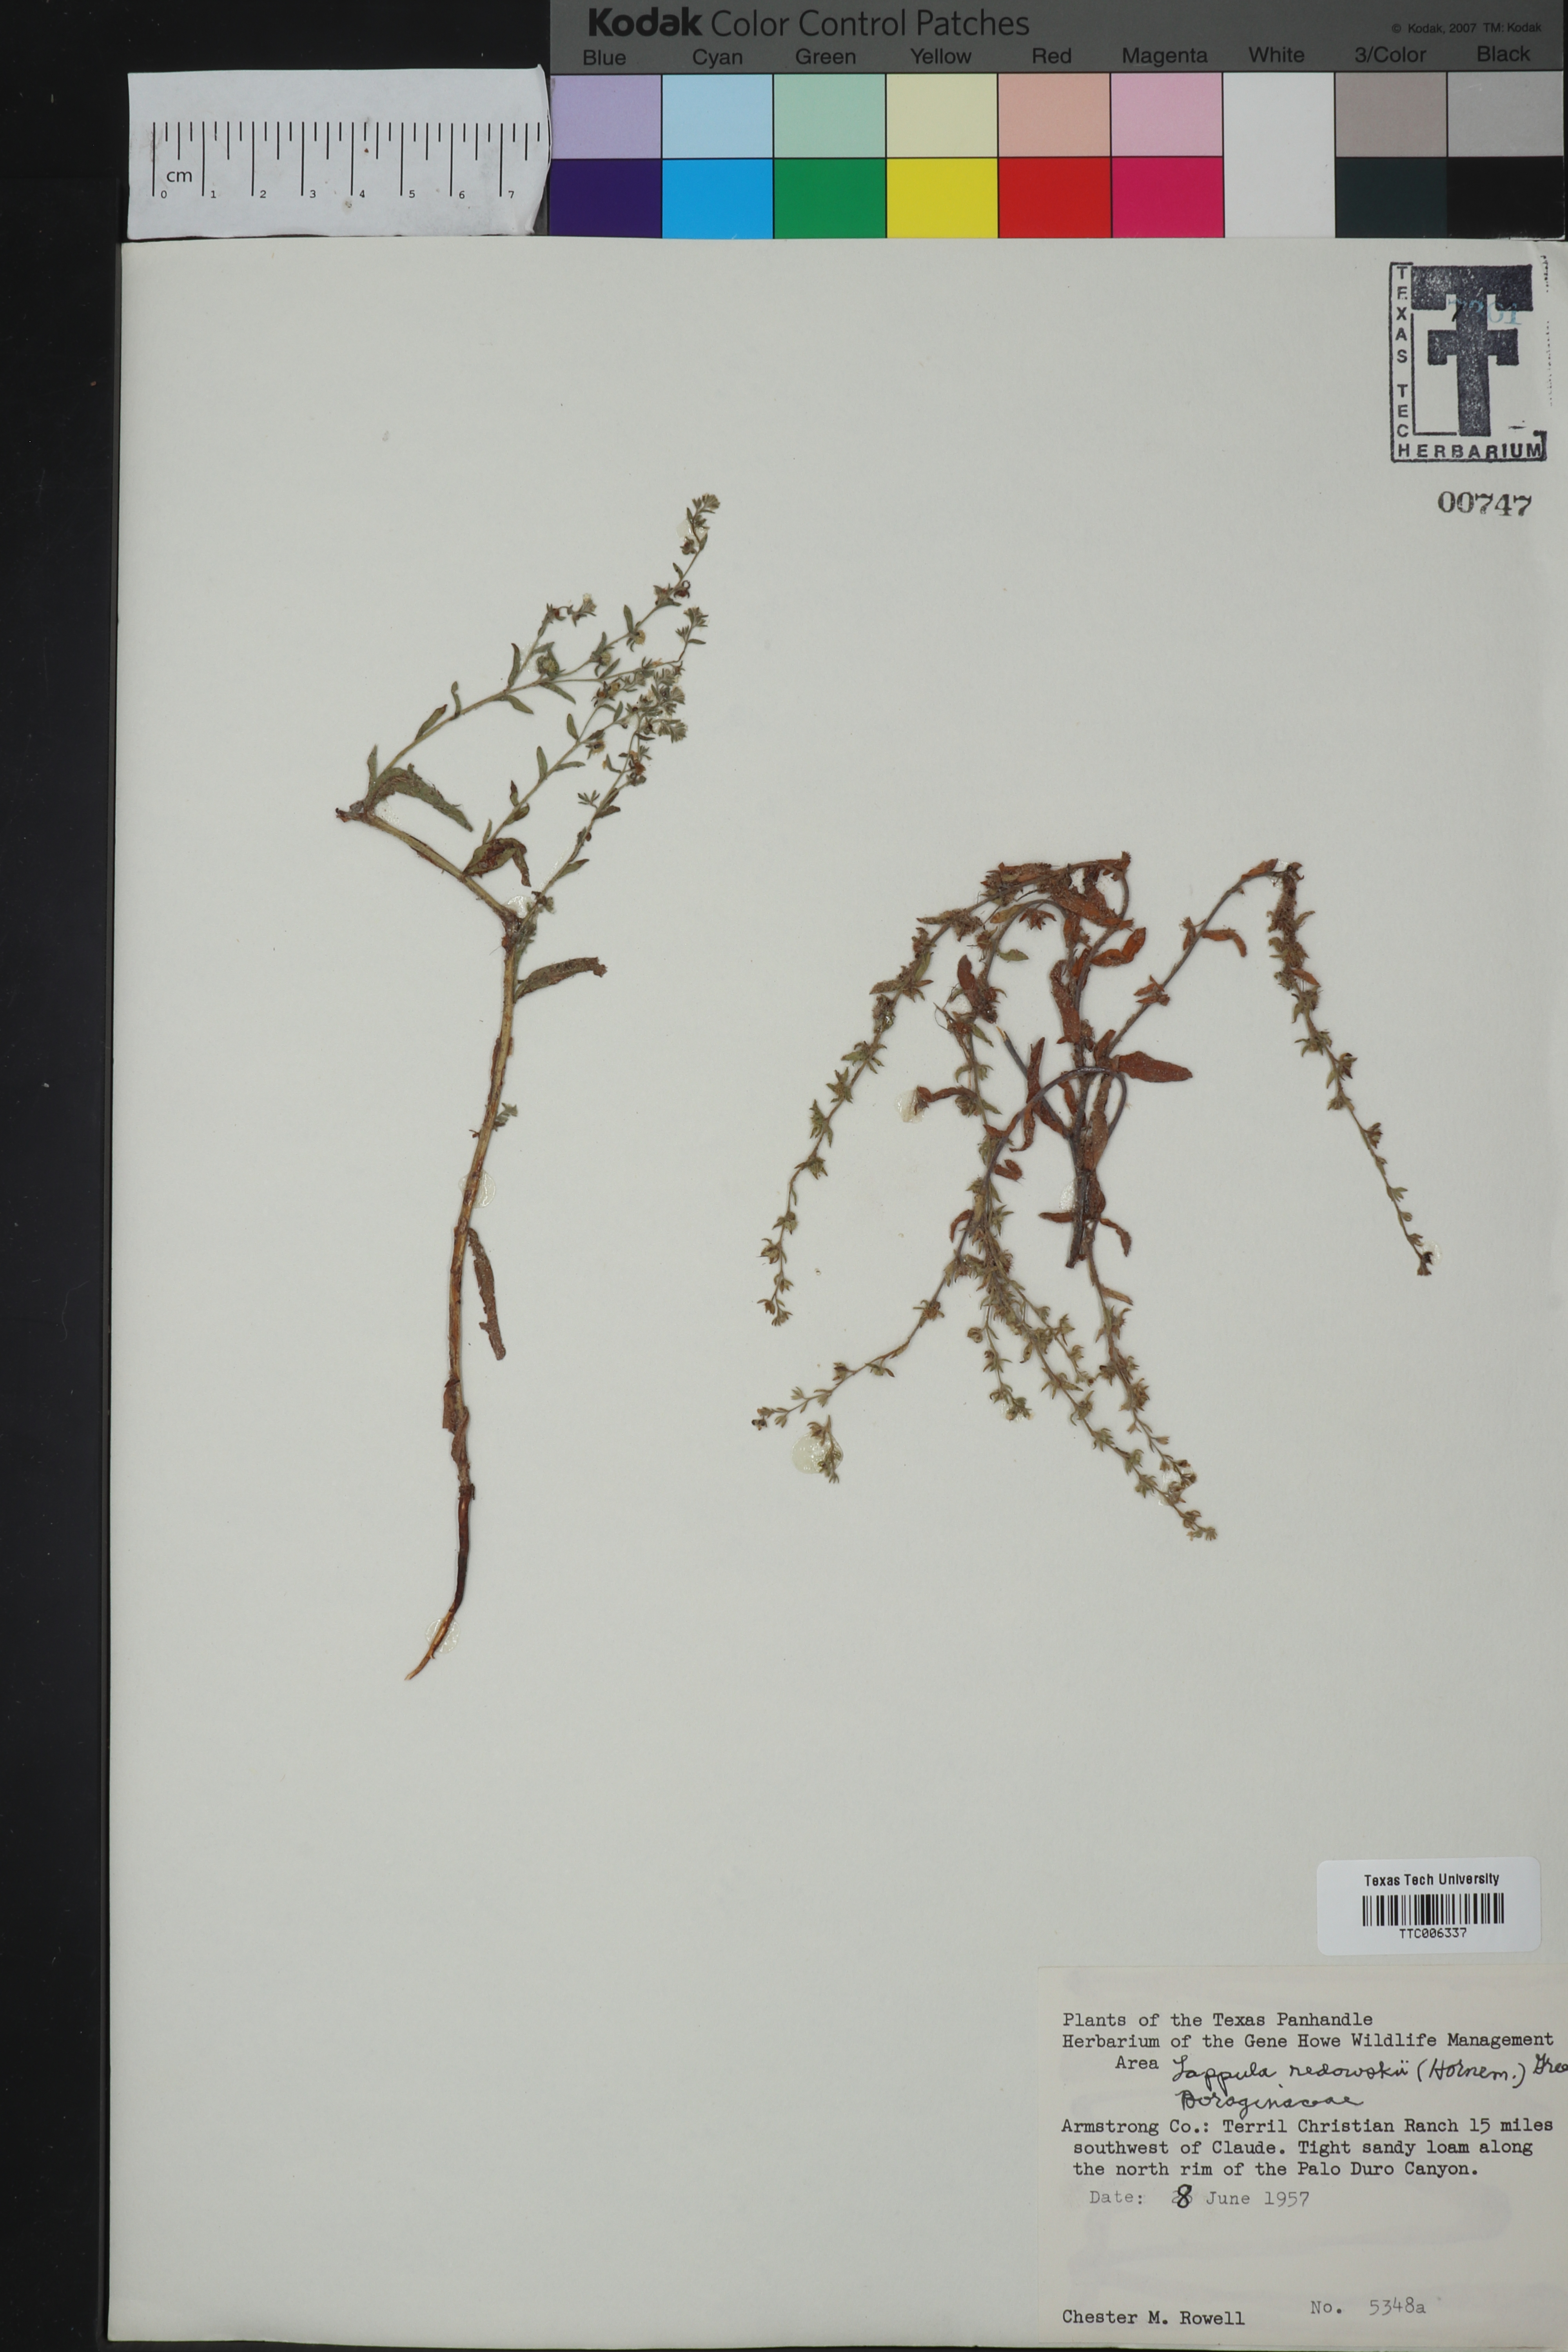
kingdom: Plantae
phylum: Tracheophyta
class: Magnoliopsida
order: Boraginales
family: Boraginaceae
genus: Lappula
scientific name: Lappula redowskii
